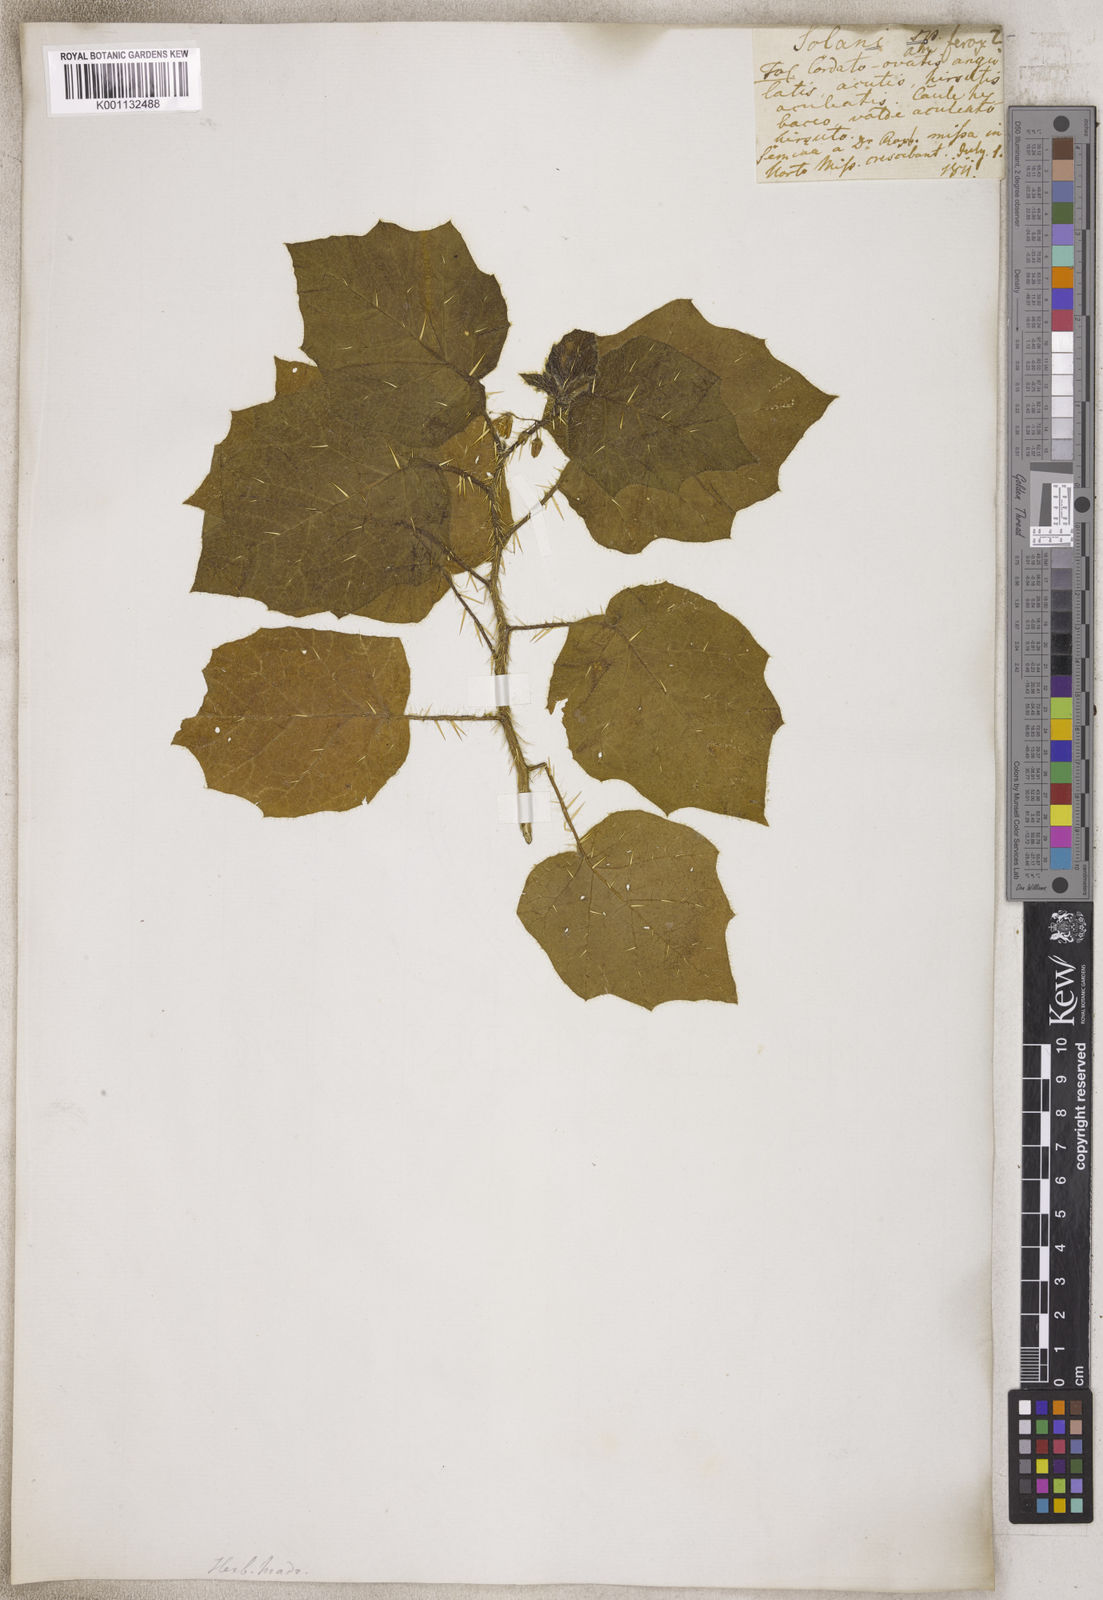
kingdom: Plantae
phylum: Tracheophyta
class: Magnoliopsida
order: Solanales
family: Solanaceae
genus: Solanum
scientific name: Solanum
